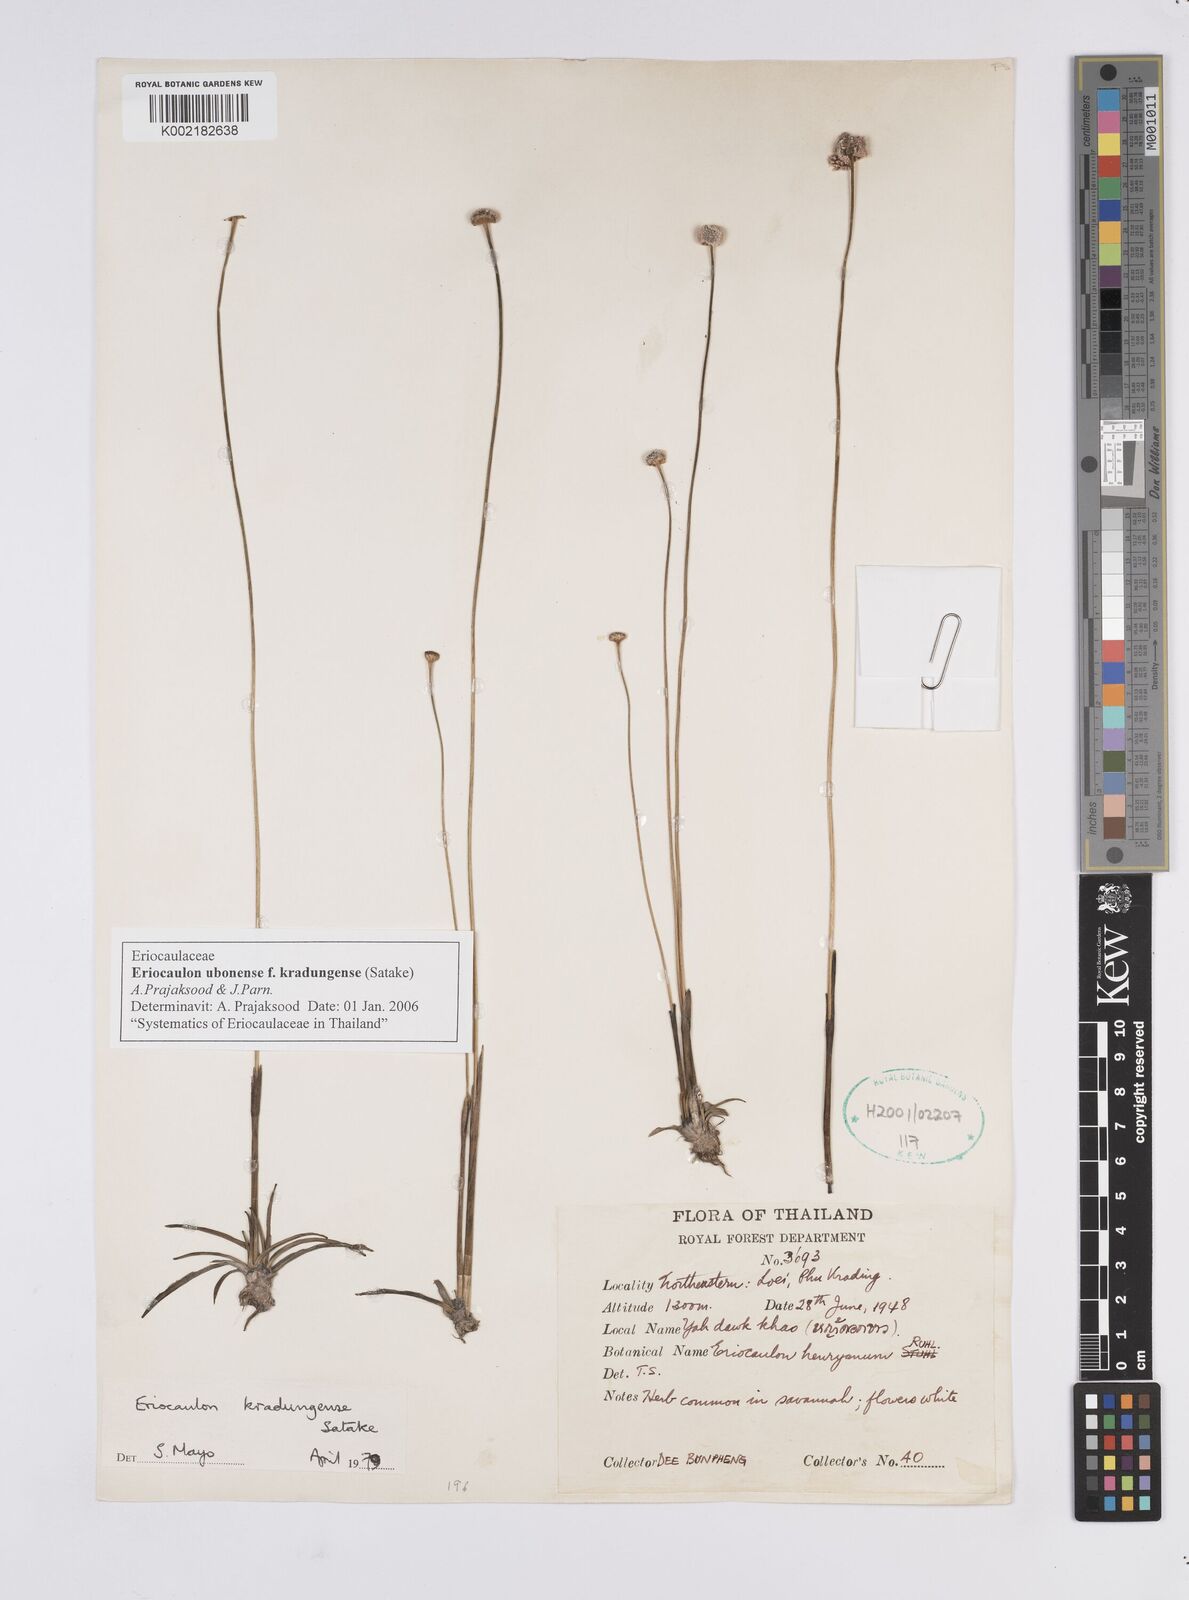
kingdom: Plantae
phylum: Tracheophyta
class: Liliopsida
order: Poales
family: Eriocaulaceae
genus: Eriocaulon
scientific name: Eriocaulon ubonense
